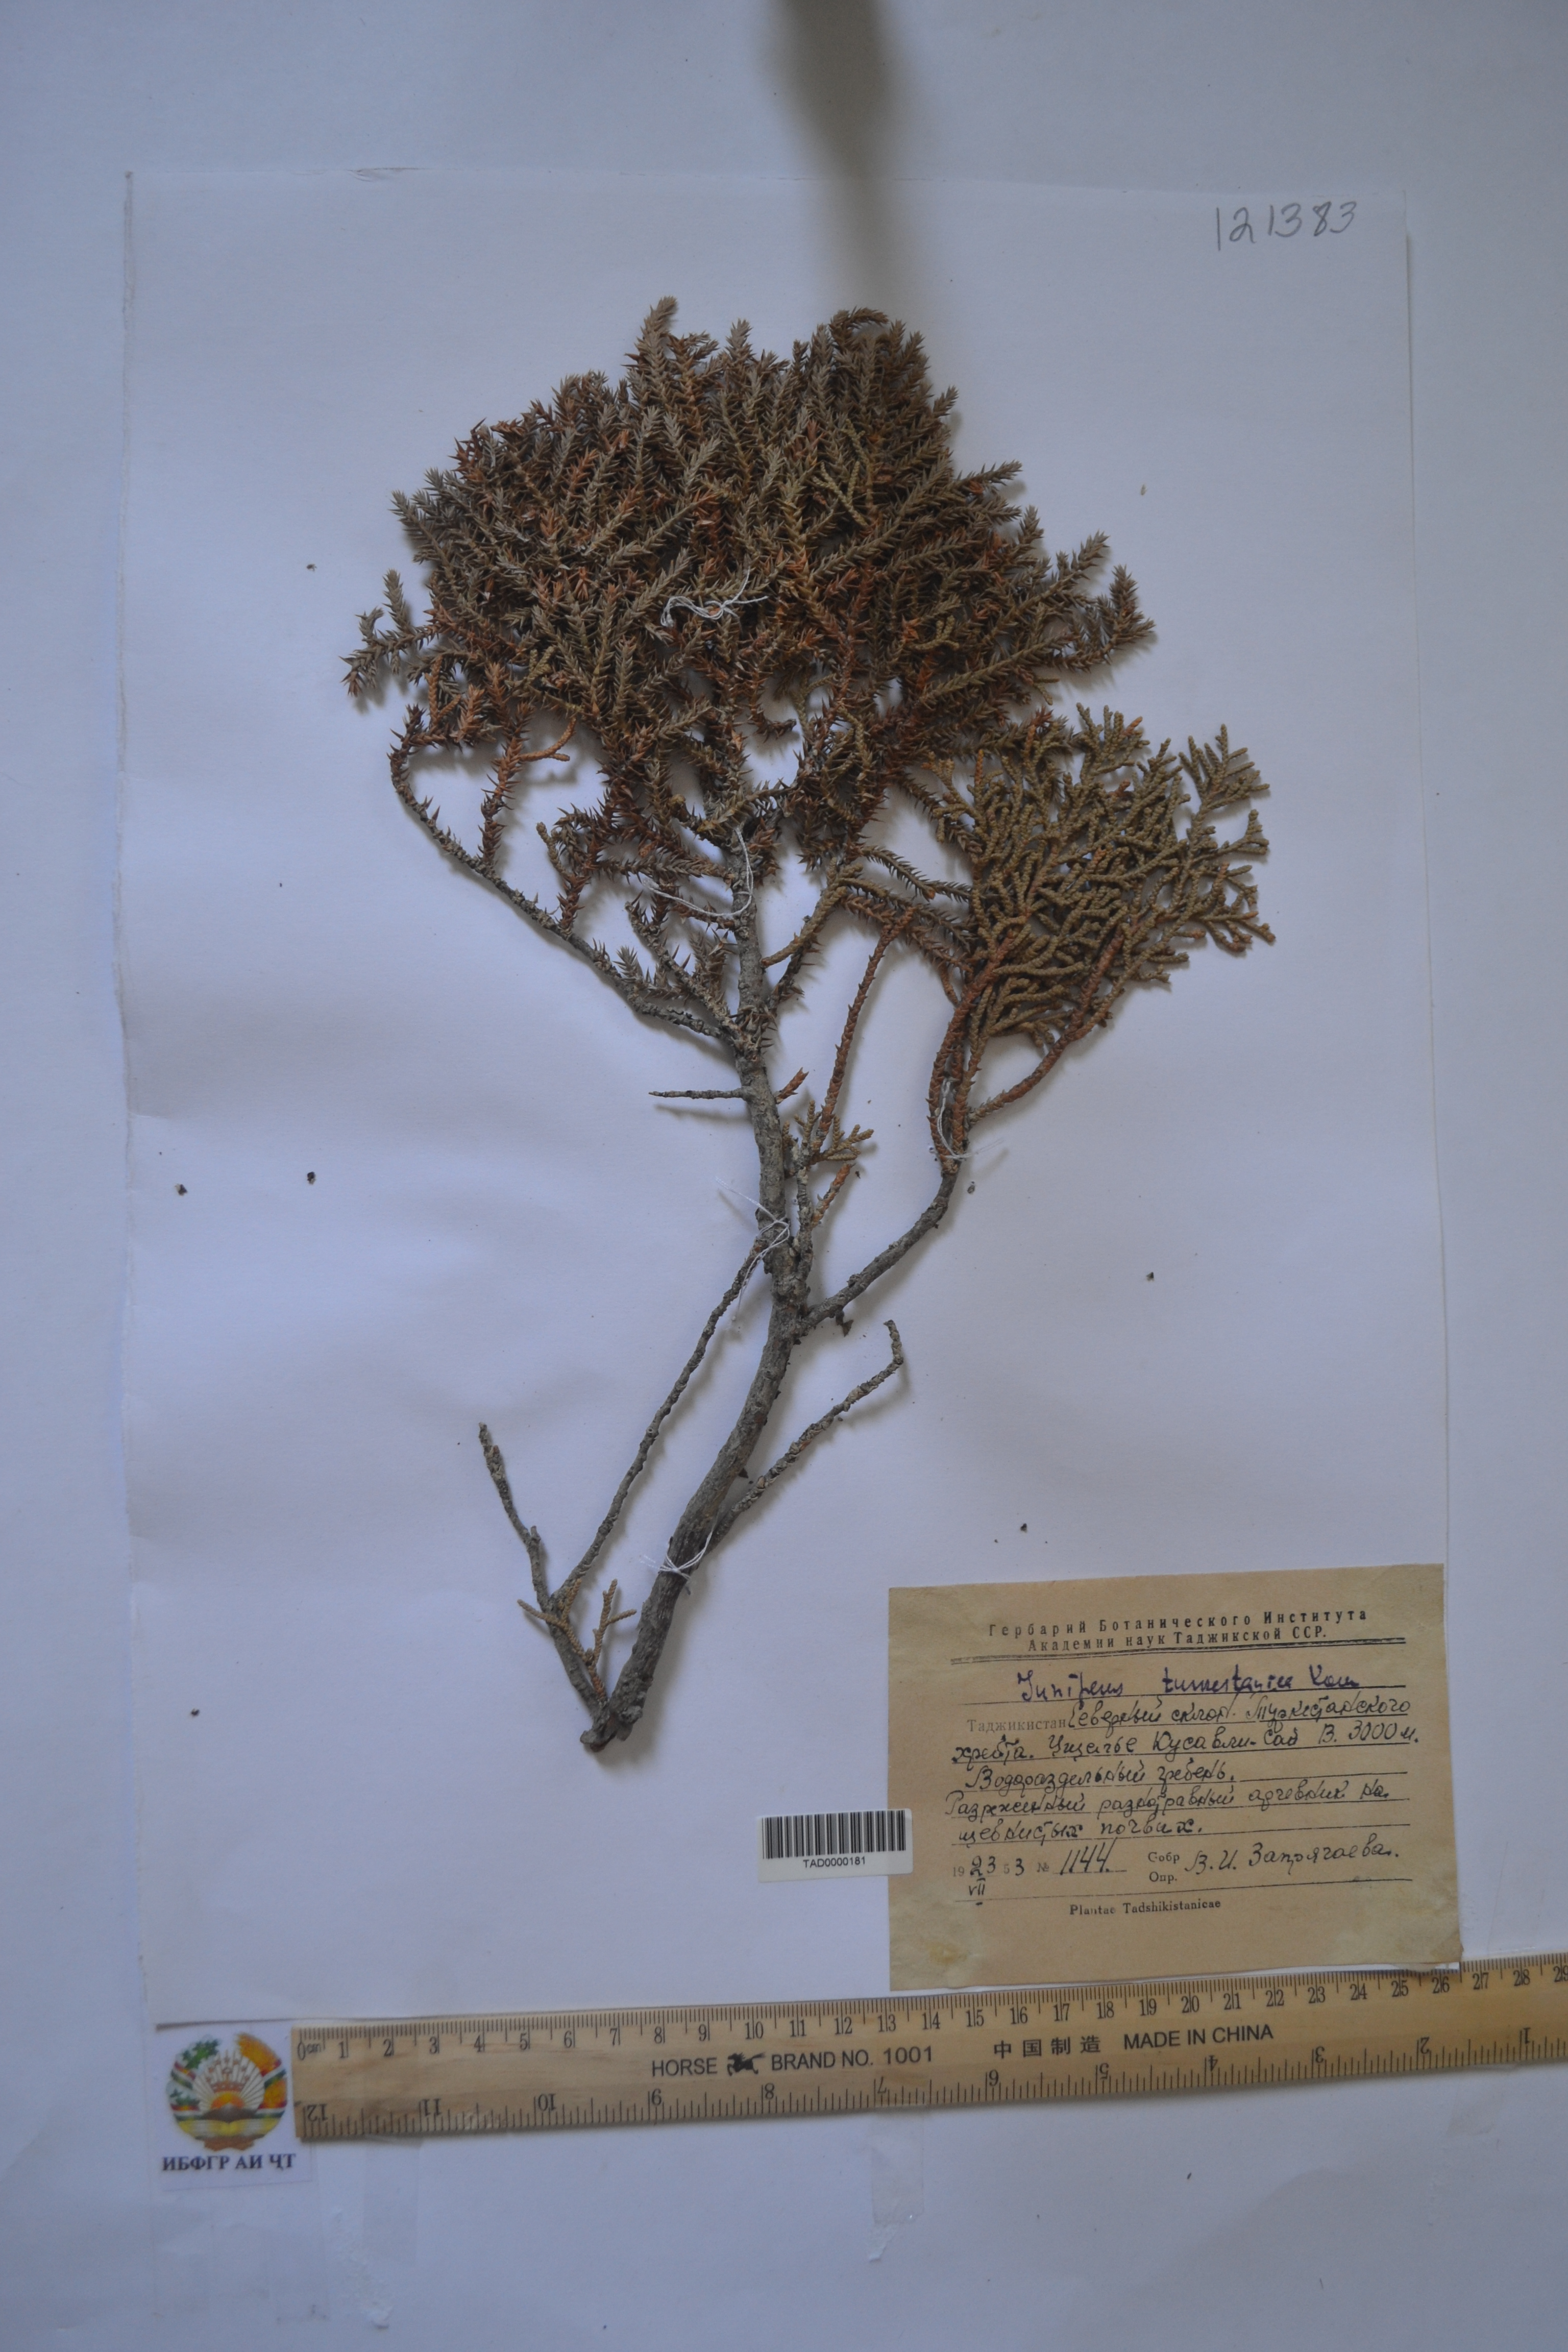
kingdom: Plantae
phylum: Tracheophyta
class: Pinopsida
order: Pinales
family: Cupressaceae
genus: Juniperus
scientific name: Juniperus pseudosabina
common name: Turkestan juniper
